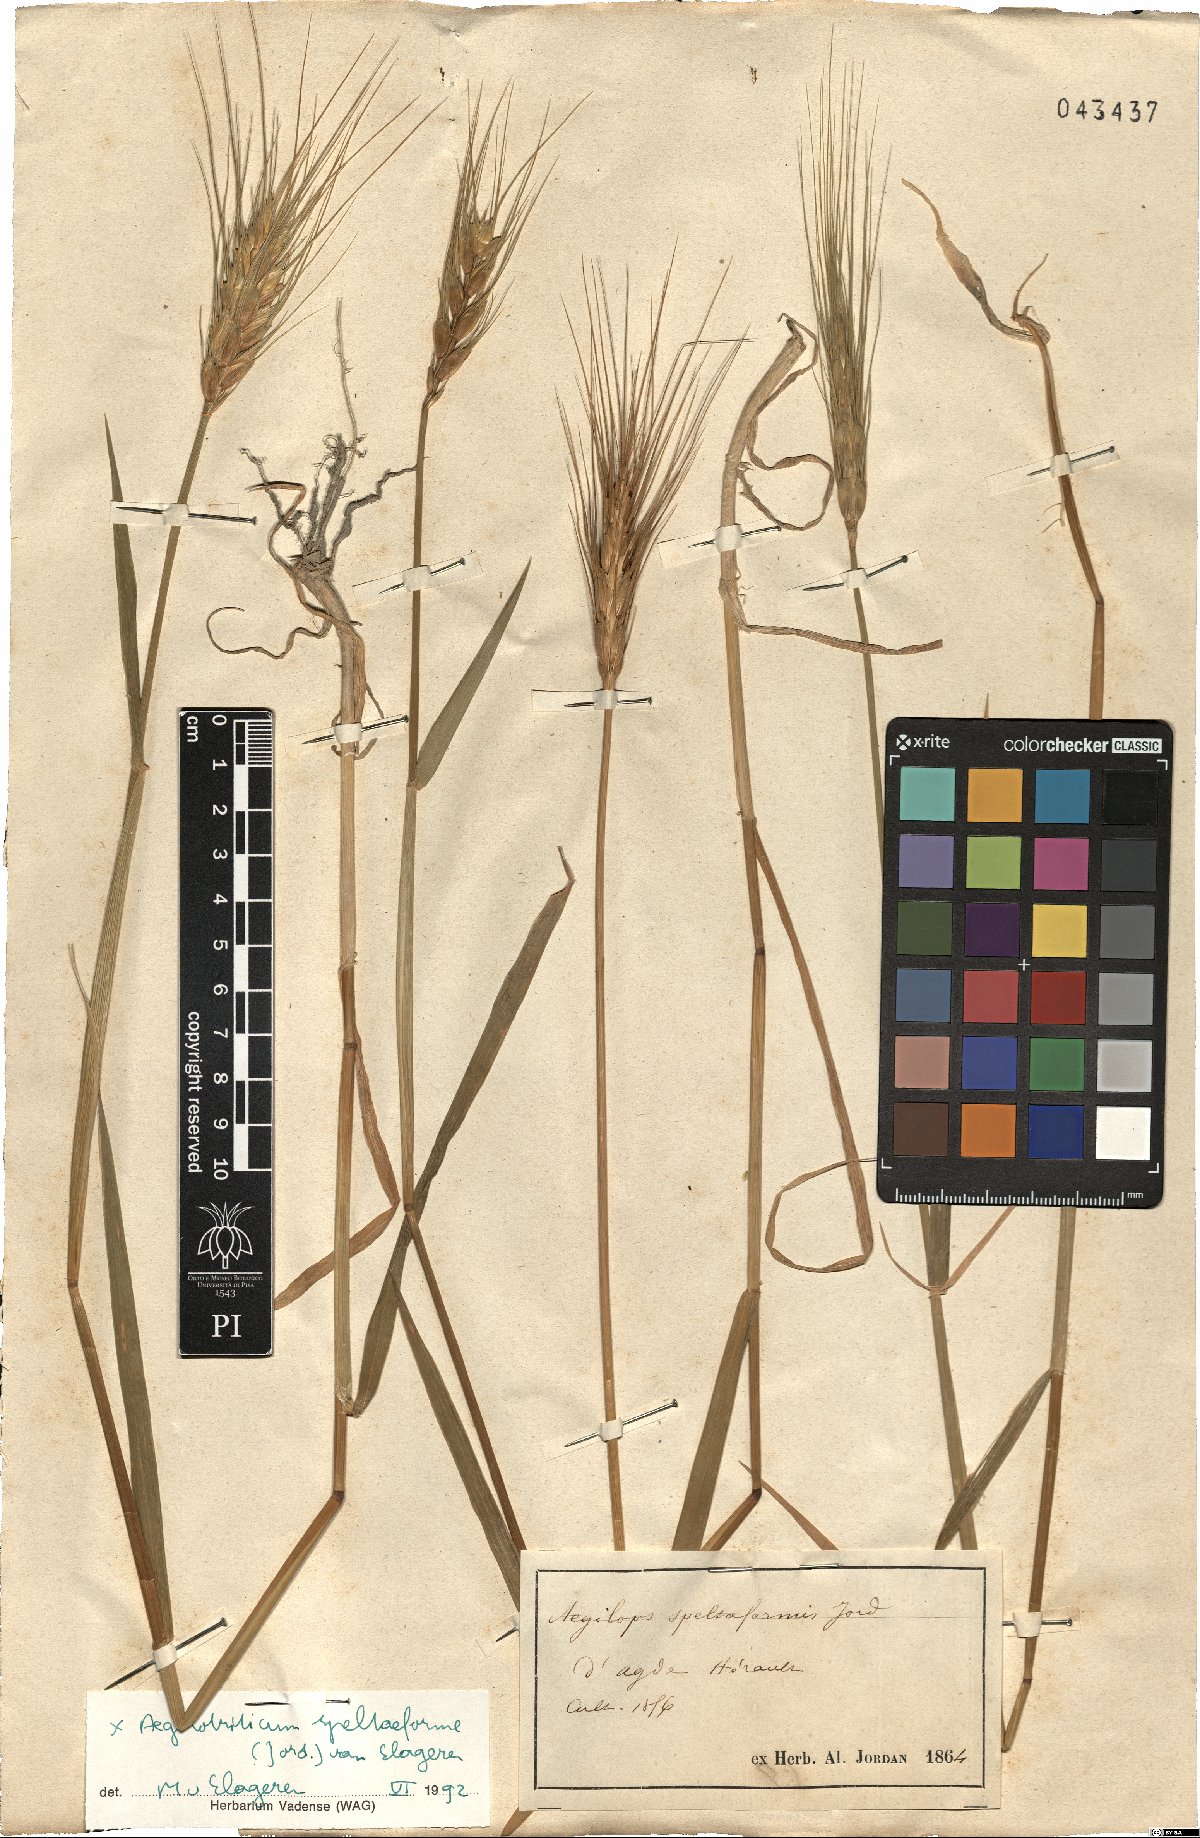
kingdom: Plantae
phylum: Tracheophyta
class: Liliopsida
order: Poales
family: Poaceae
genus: Aegilotriticum
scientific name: Aegilotriticum triticoides
